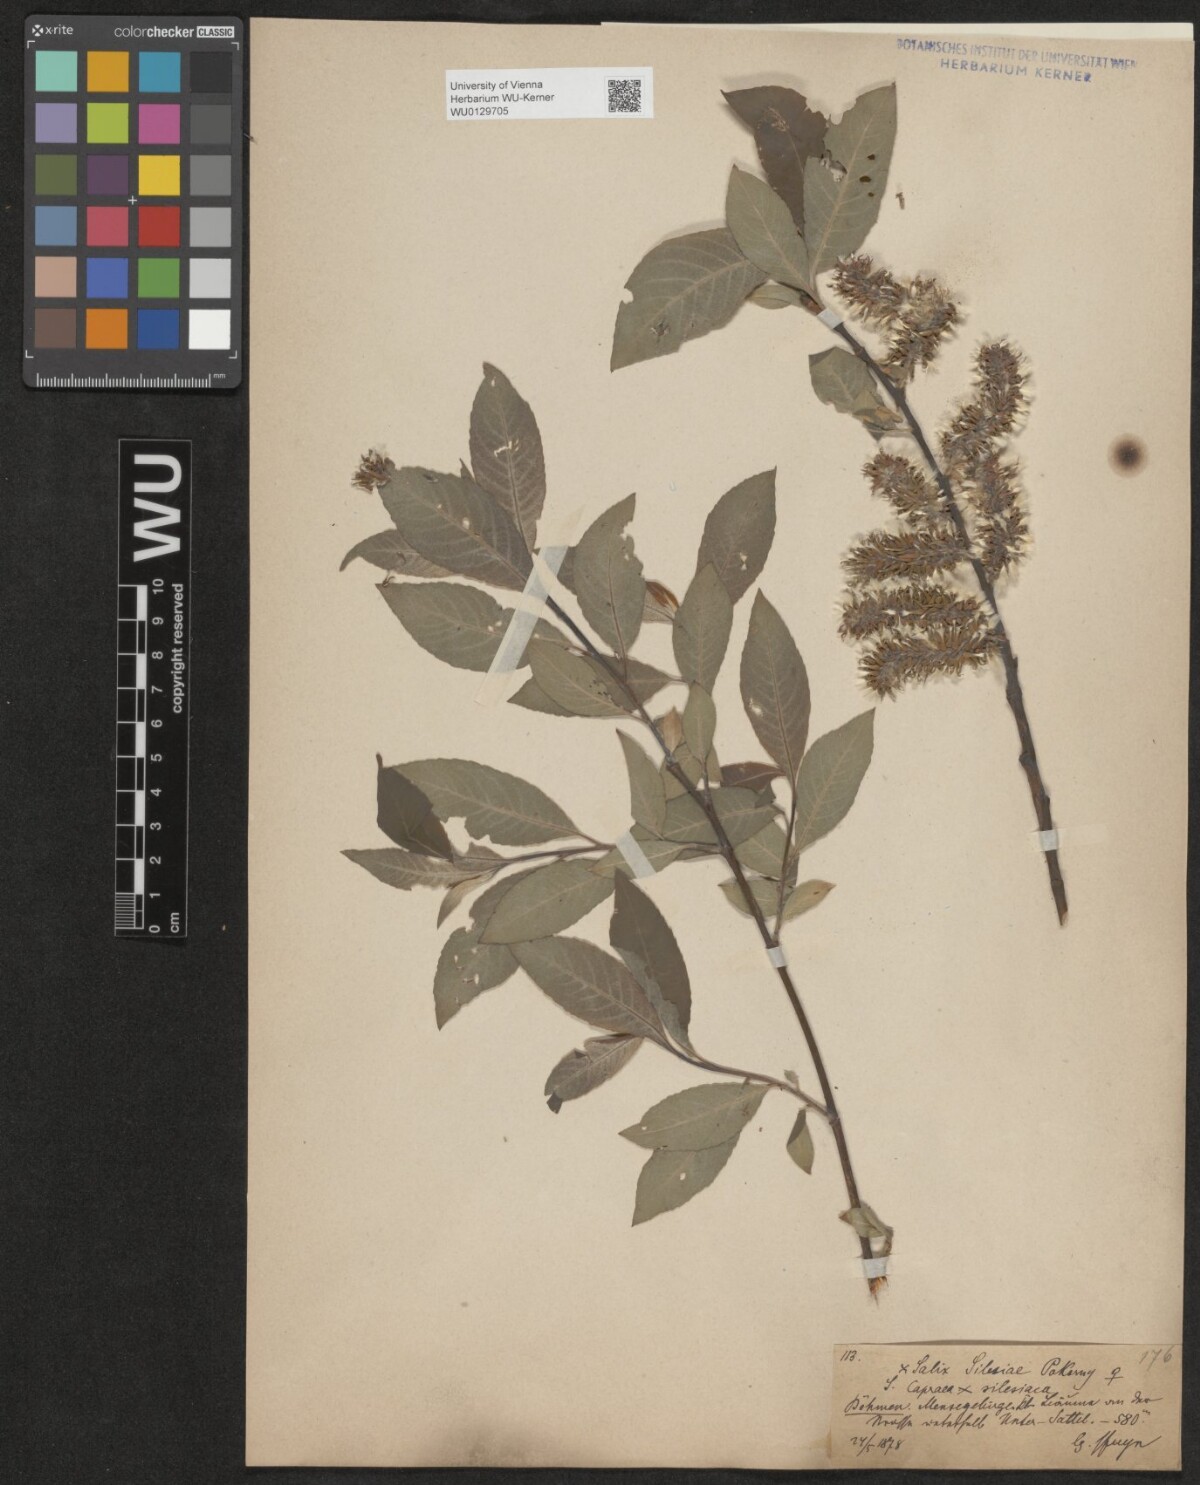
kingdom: Plantae
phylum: Tracheophyta
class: Magnoliopsida
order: Malpighiales
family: Salicaceae
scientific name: Salicaceae
